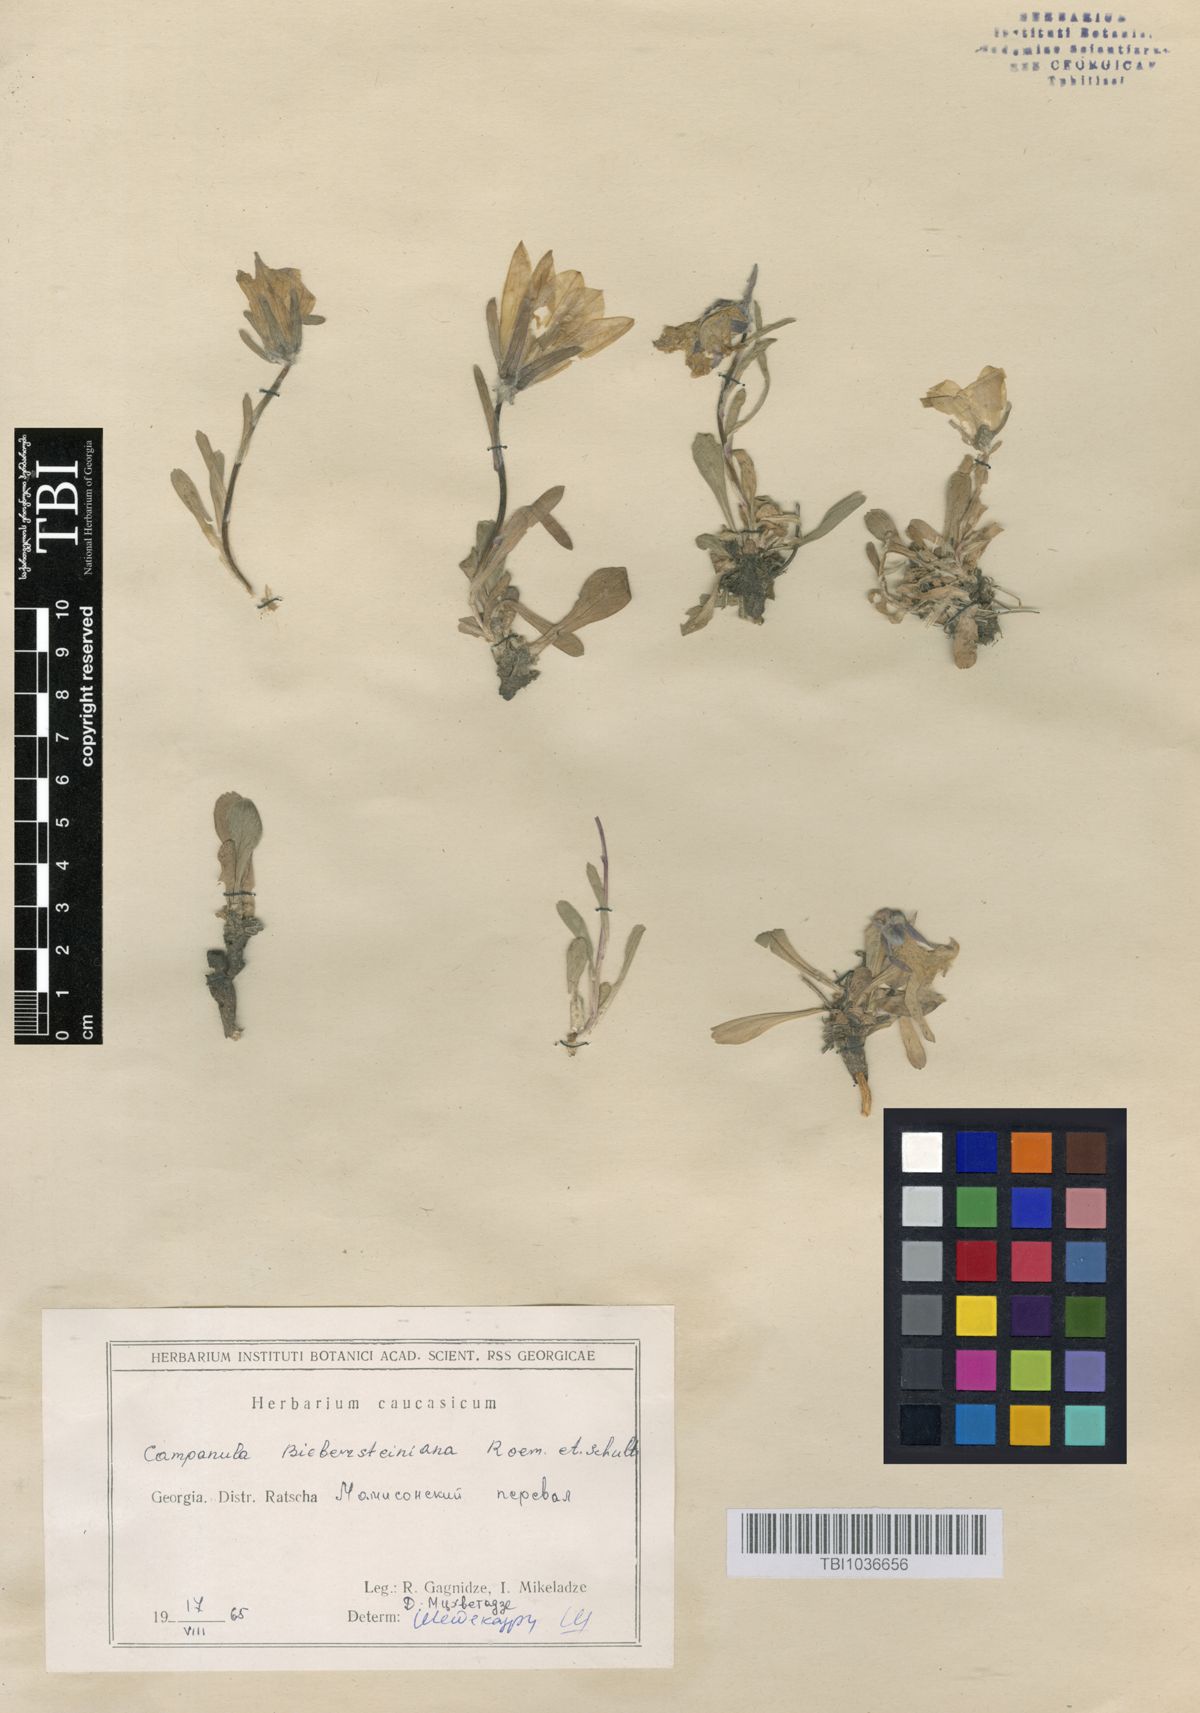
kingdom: Plantae
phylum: Tracheophyta
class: Magnoliopsida
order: Asterales
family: Campanulaceae
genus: Campanula
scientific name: Campanula tridentata
